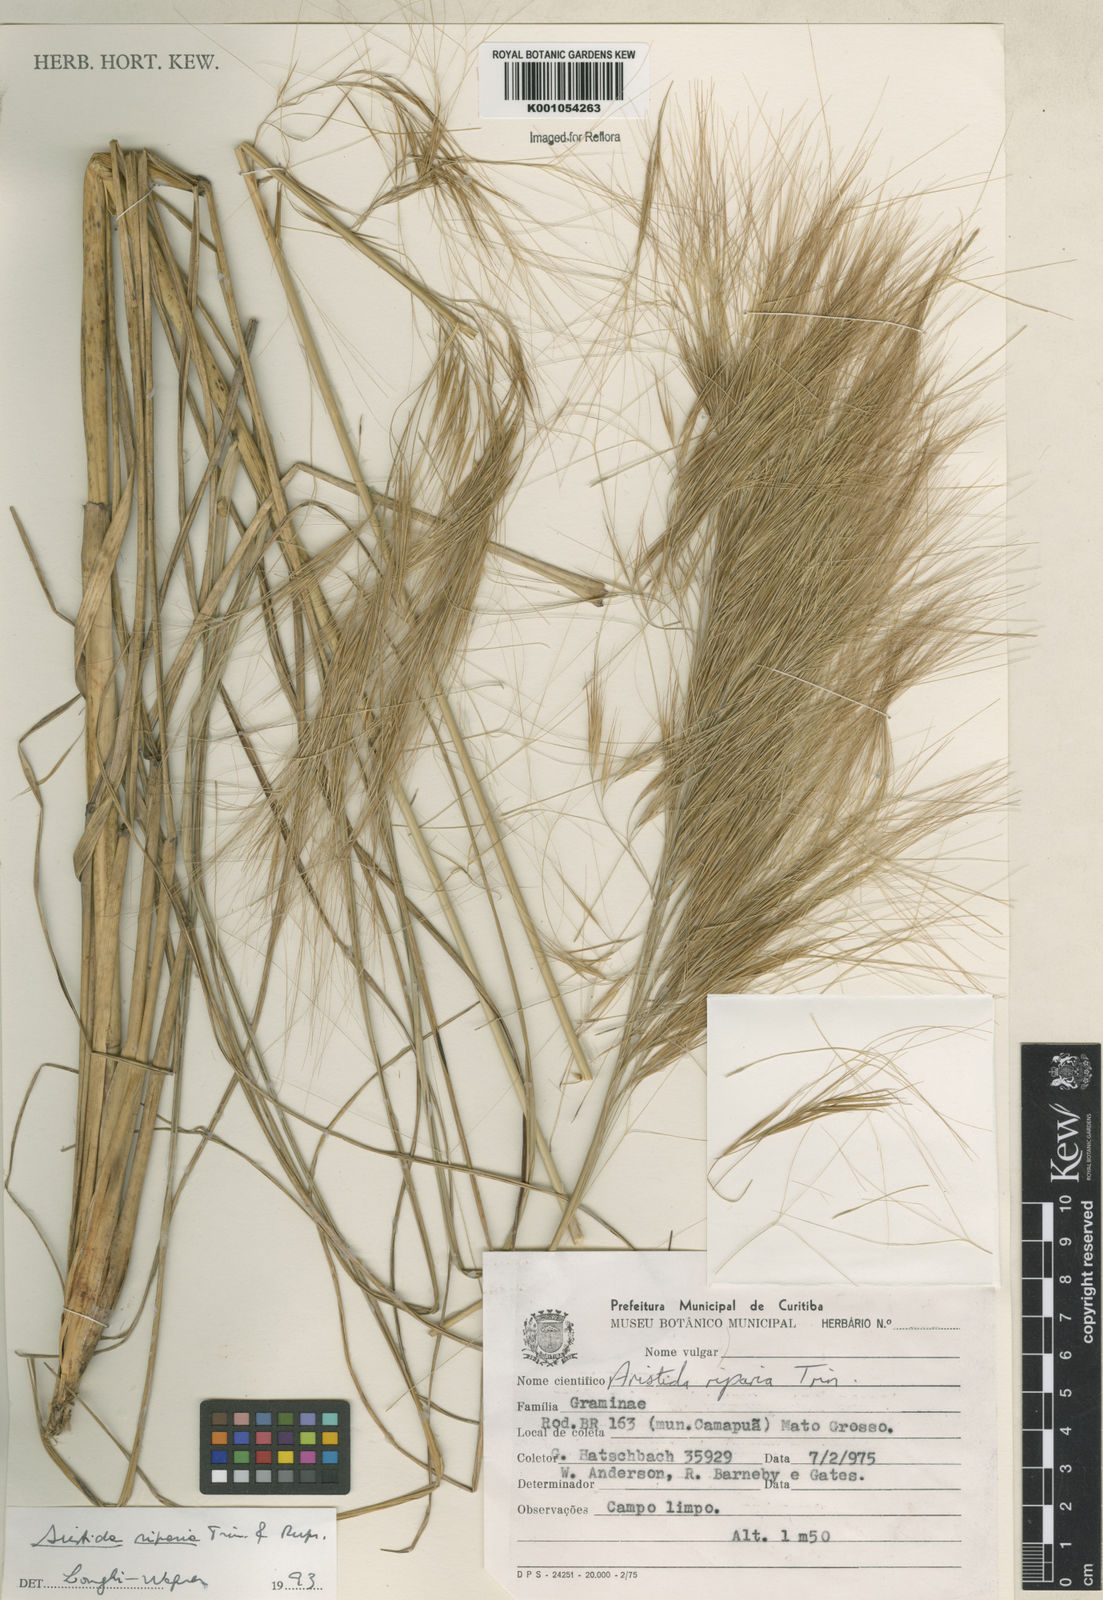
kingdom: Plantae
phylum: Tracheophyta
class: Liliopsida
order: Poales
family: Poaceae
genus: Aristida
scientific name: Aristida riparia
